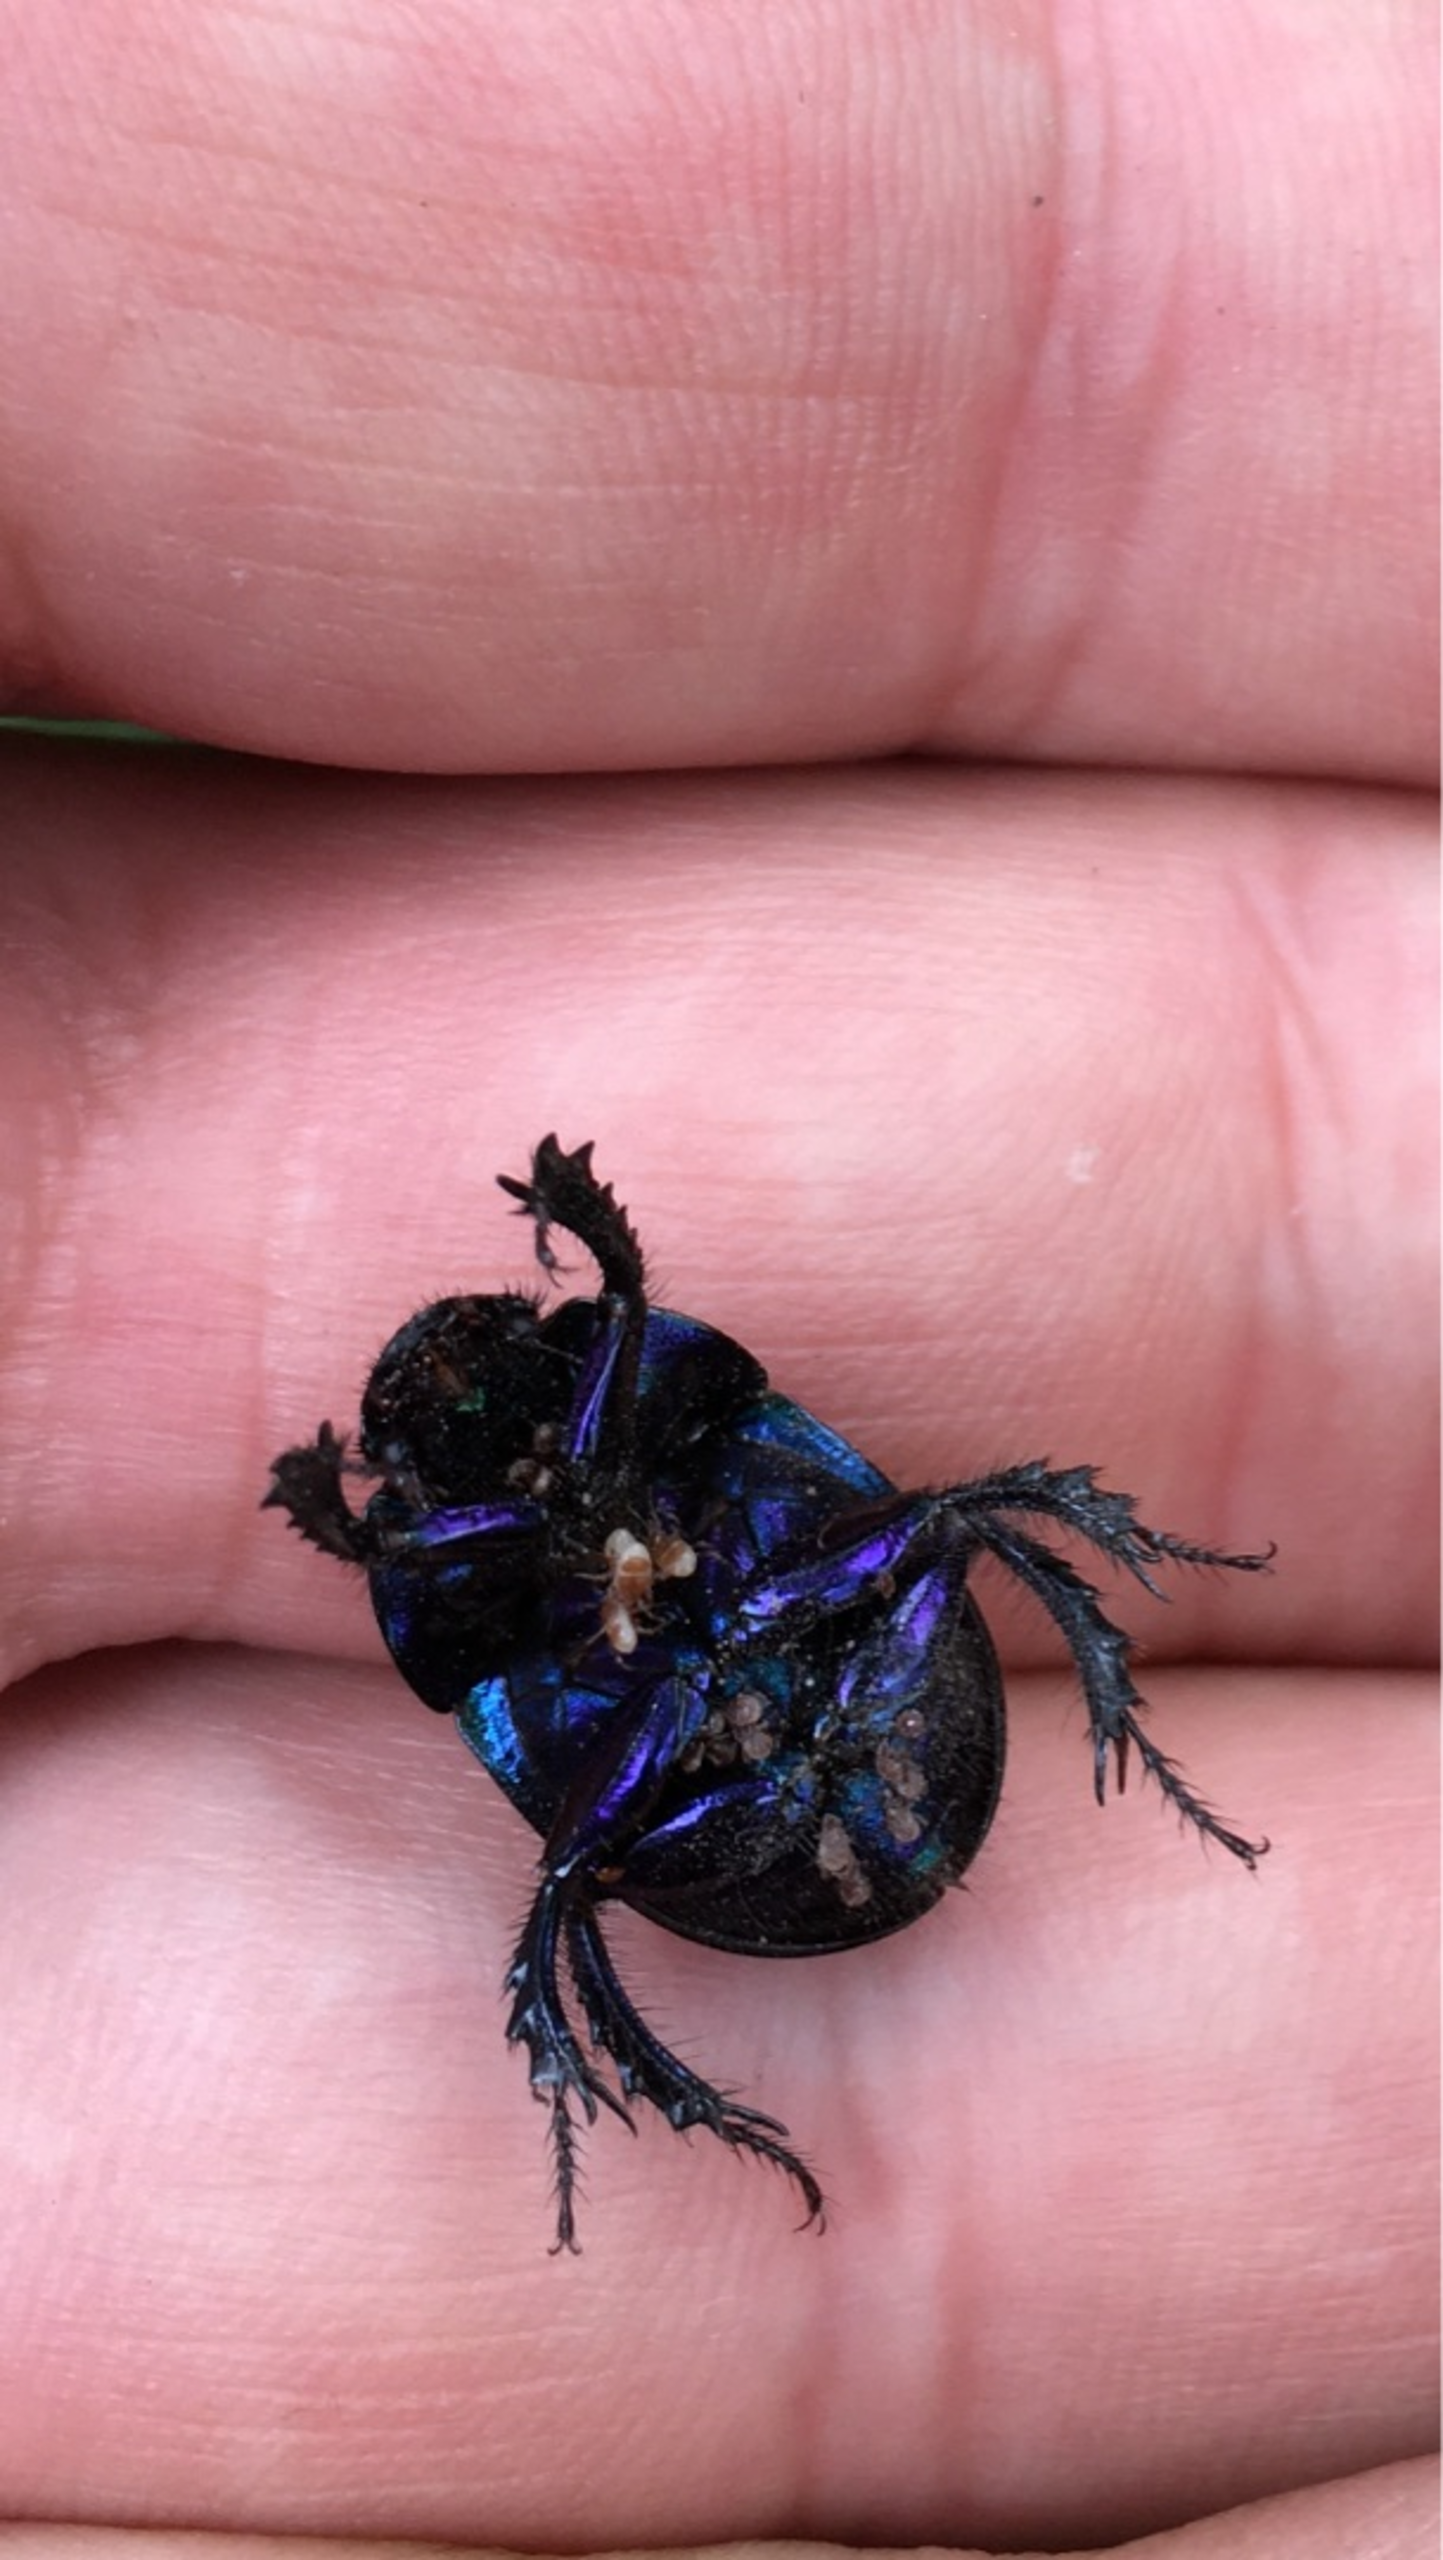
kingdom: Animalia
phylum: Arthropoda
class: Insecta
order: Coleoptera
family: Geotrupidae
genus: Anoplotrupes
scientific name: Anoplotrupes stercorosus
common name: Skovskarnbasse
